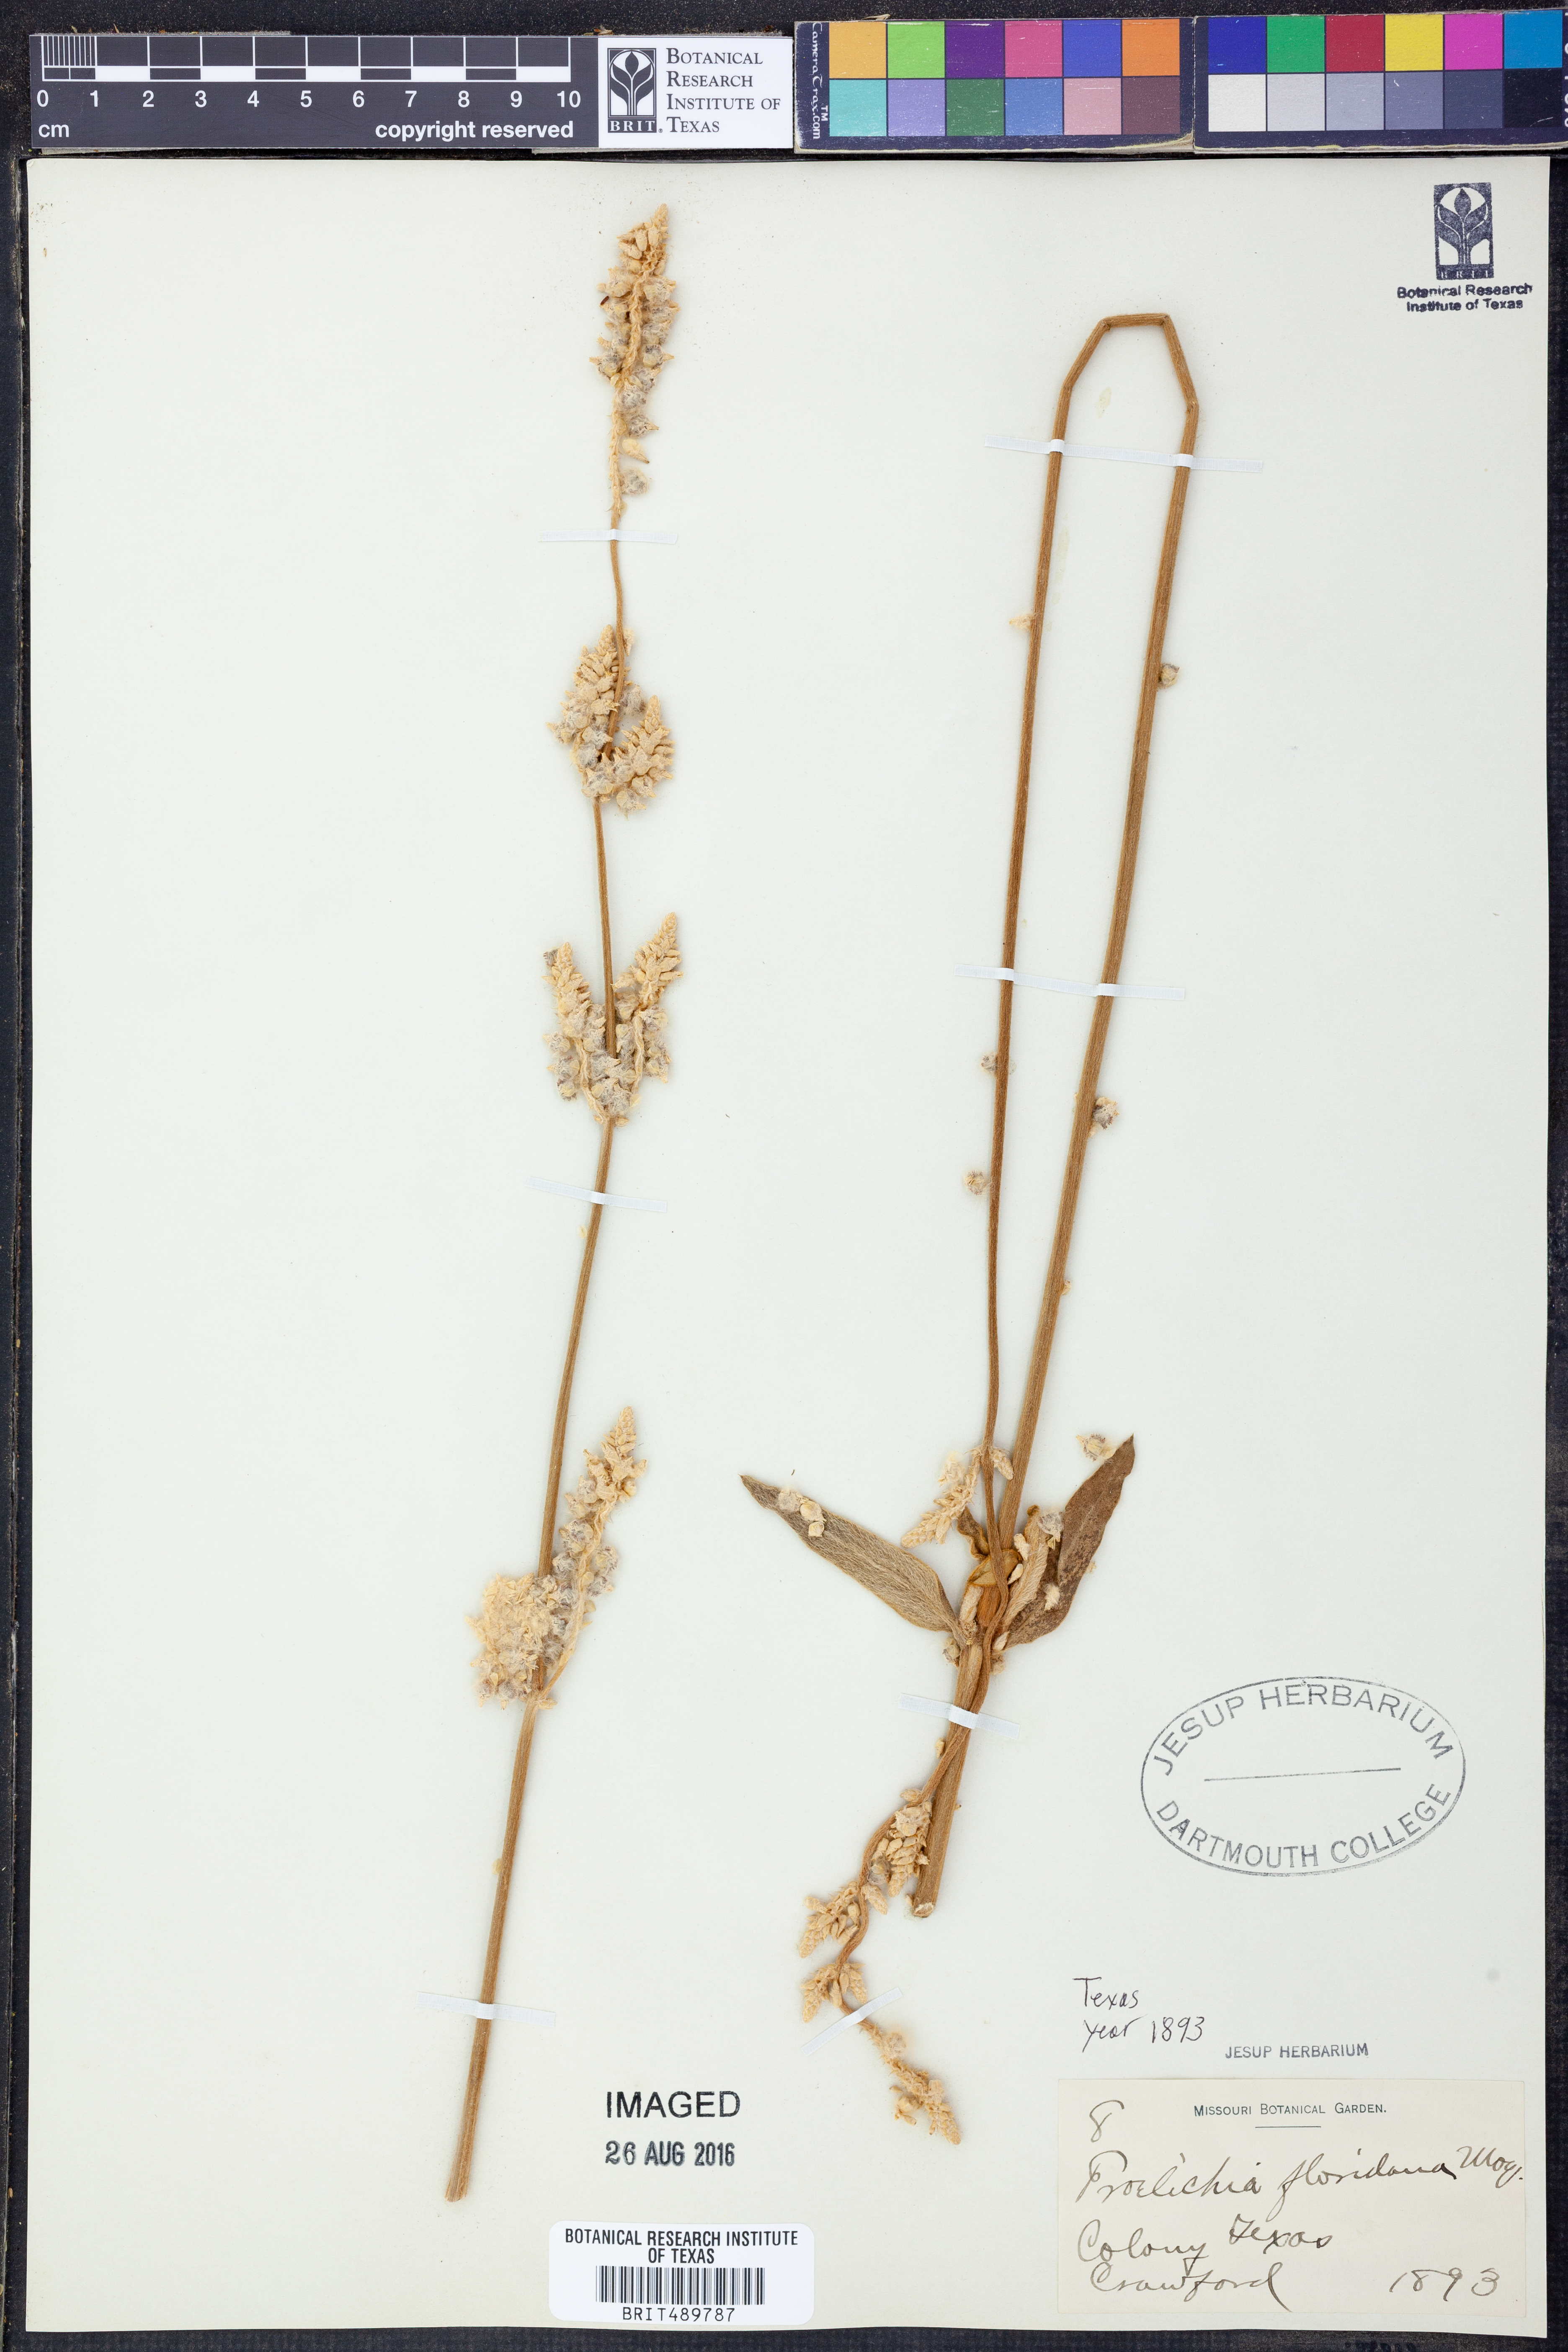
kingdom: Plantae
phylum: Tracheophyta
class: Magnoliopsida
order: Caryophyllales
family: Amaranthaceae
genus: Froelichia
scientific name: Froelichia floridana
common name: Florida snake-cotton
